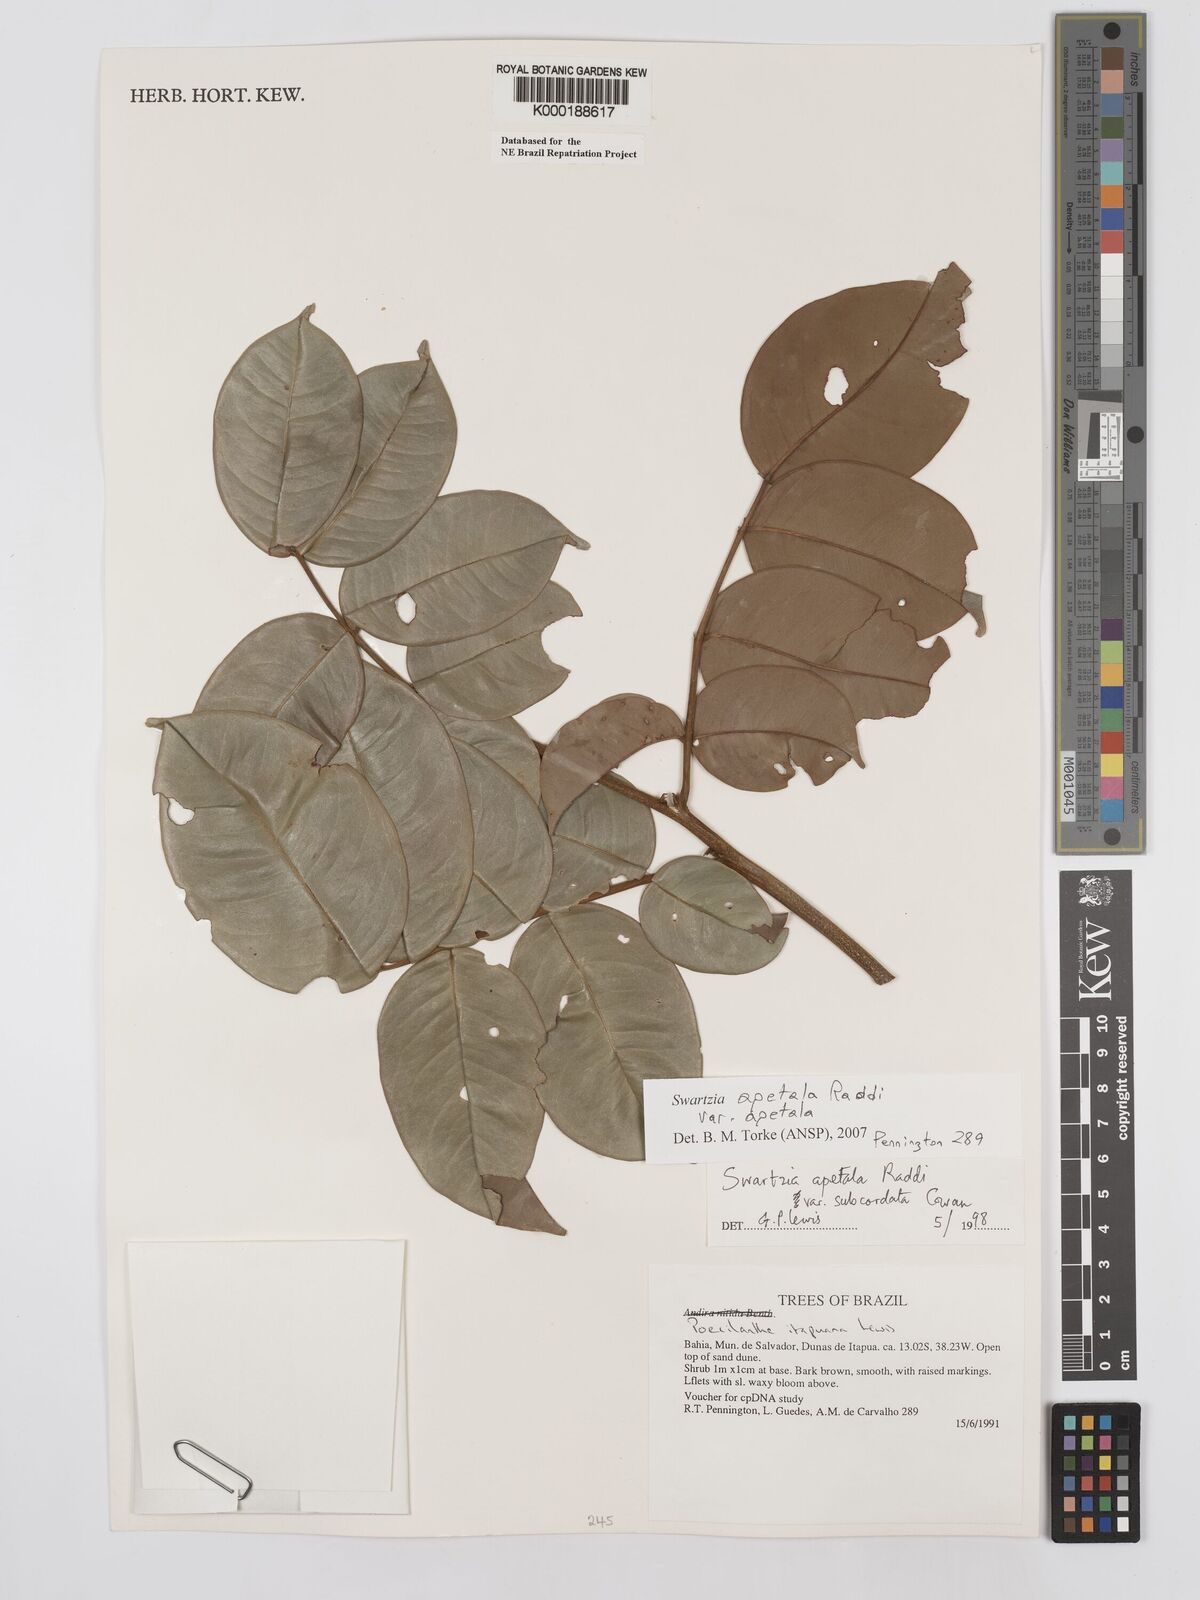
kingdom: Plantae
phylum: Tracheophyta
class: Magnoliopsida
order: Fabales
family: Fabaceae
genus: Swartzia
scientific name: Swartzia apetala
